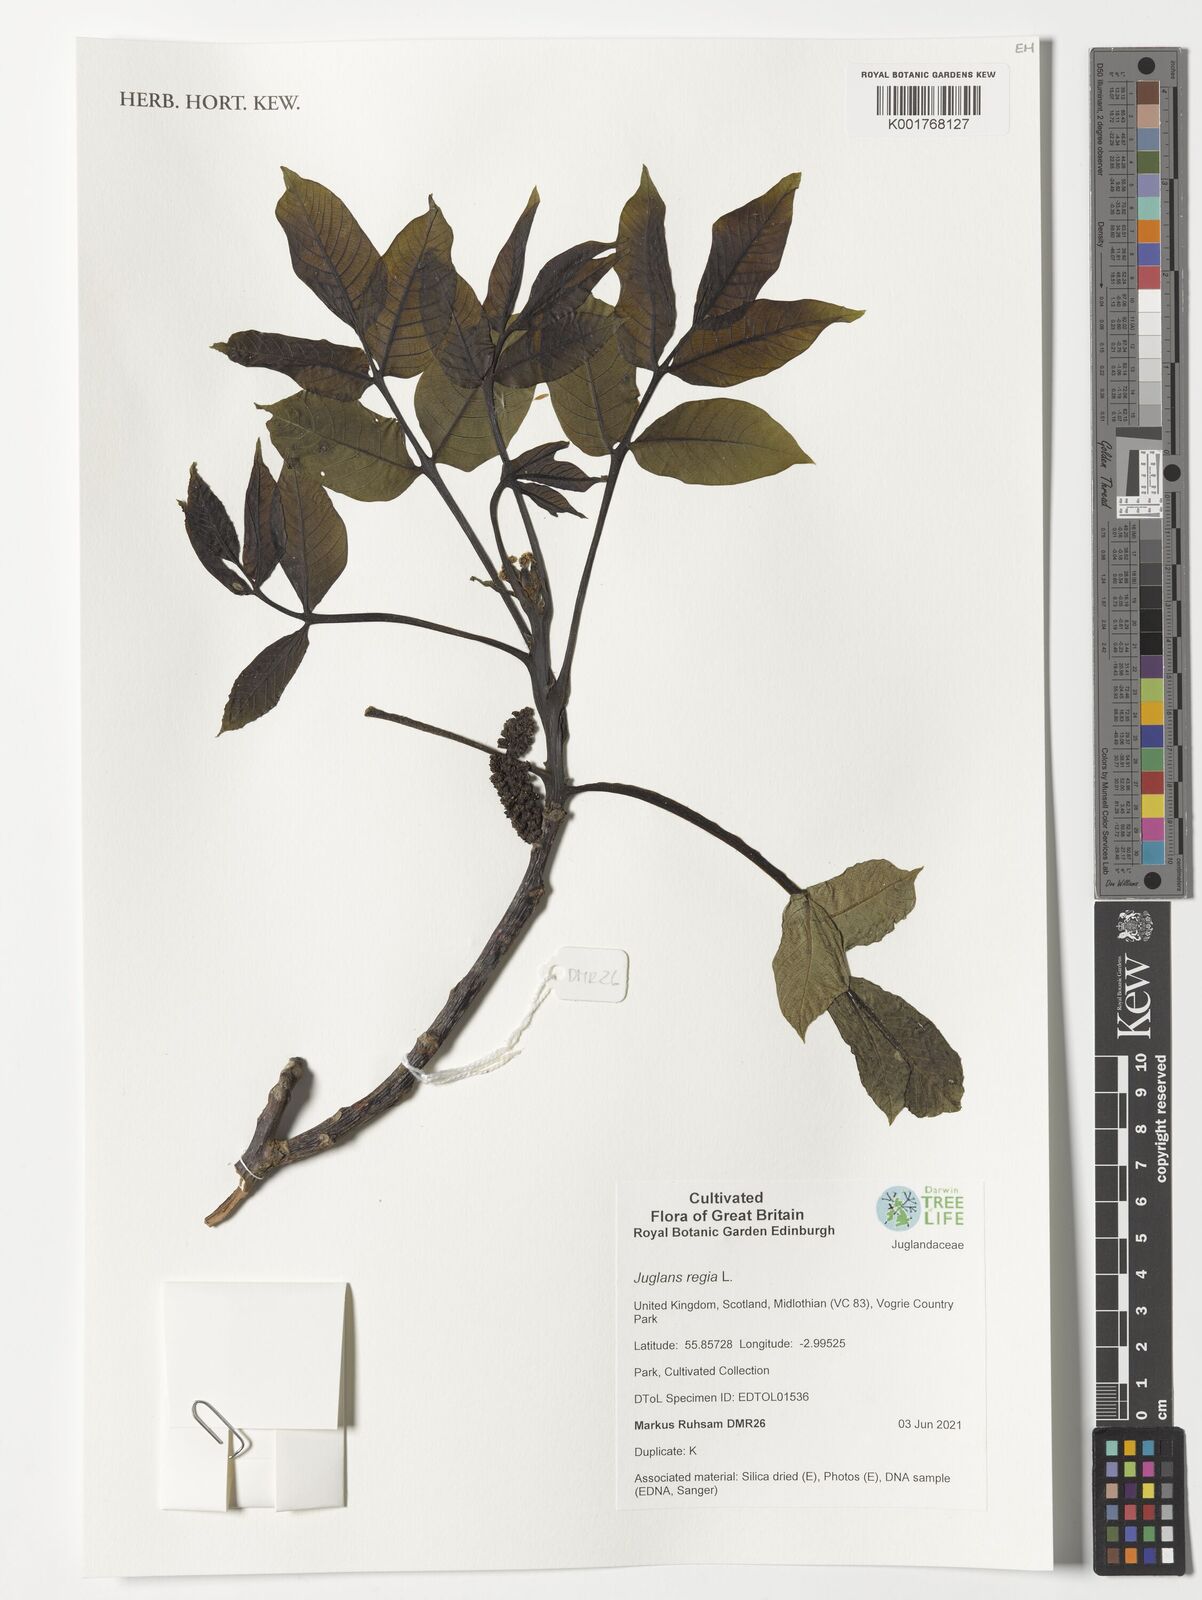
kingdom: Plantae
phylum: Tracheophyta
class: Magnoliopsida
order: Fagales
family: Juglandaceae
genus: Juglans
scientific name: Juglans regia
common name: Walnut
